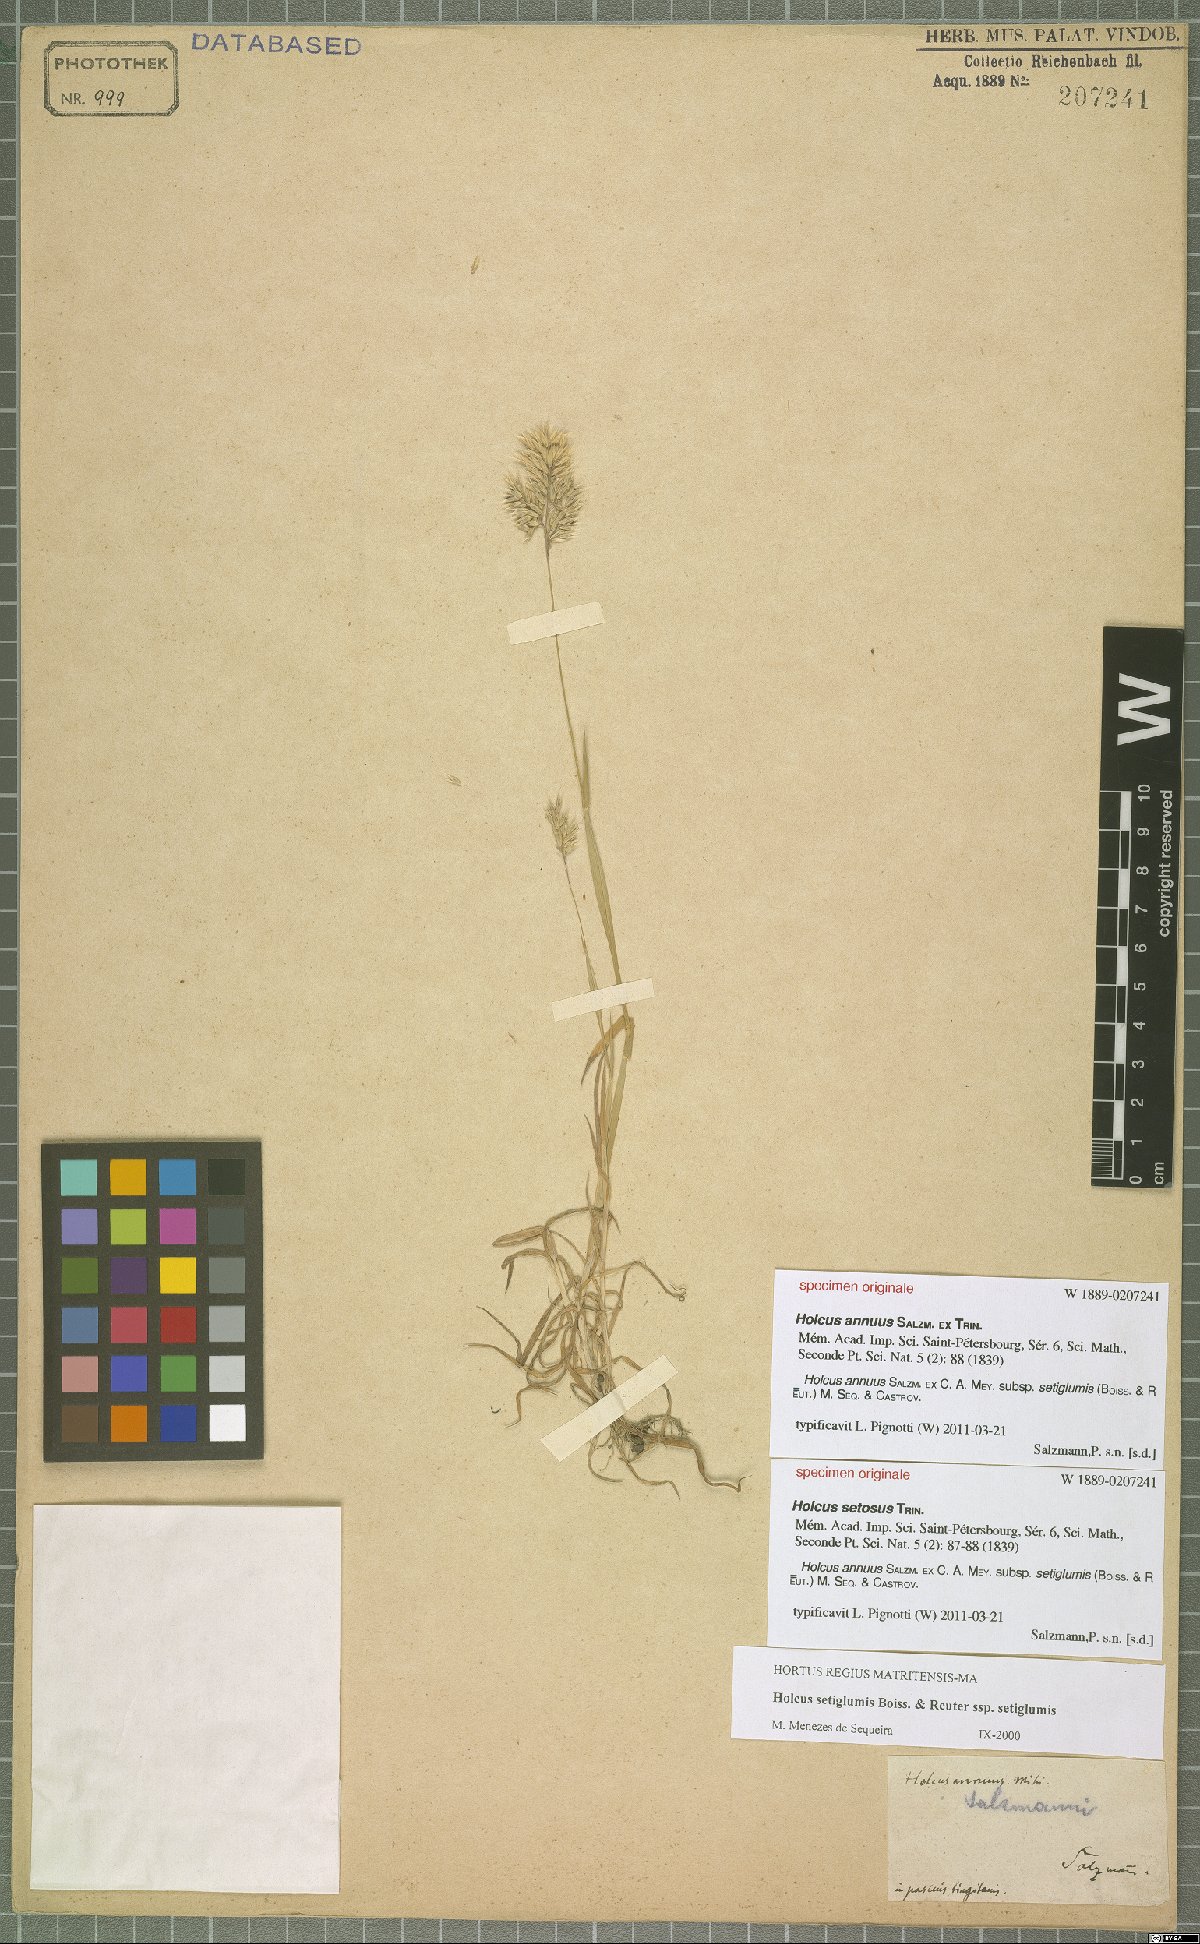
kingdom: Plantae
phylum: Tracheophyta
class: Liliopsida
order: Poales
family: Poaceae
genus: Holcus
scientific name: Holcus annuus
